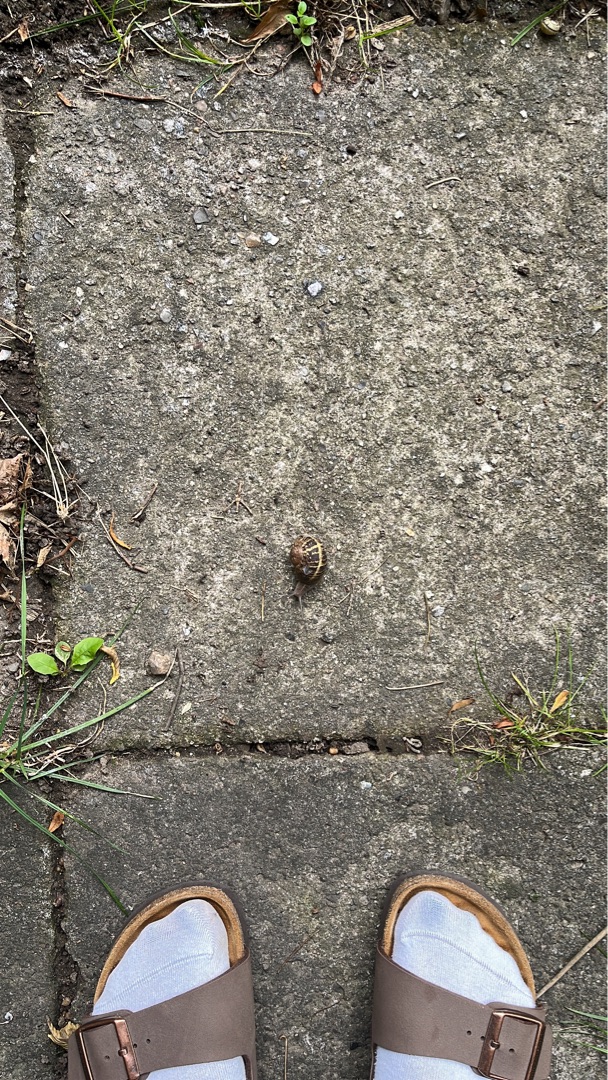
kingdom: Animalia
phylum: Mollusca
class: Gastropoda
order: Stylommatophora
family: Helicidae
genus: Cornu
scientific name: Cornu aspersum
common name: Plettet voldsnegl
